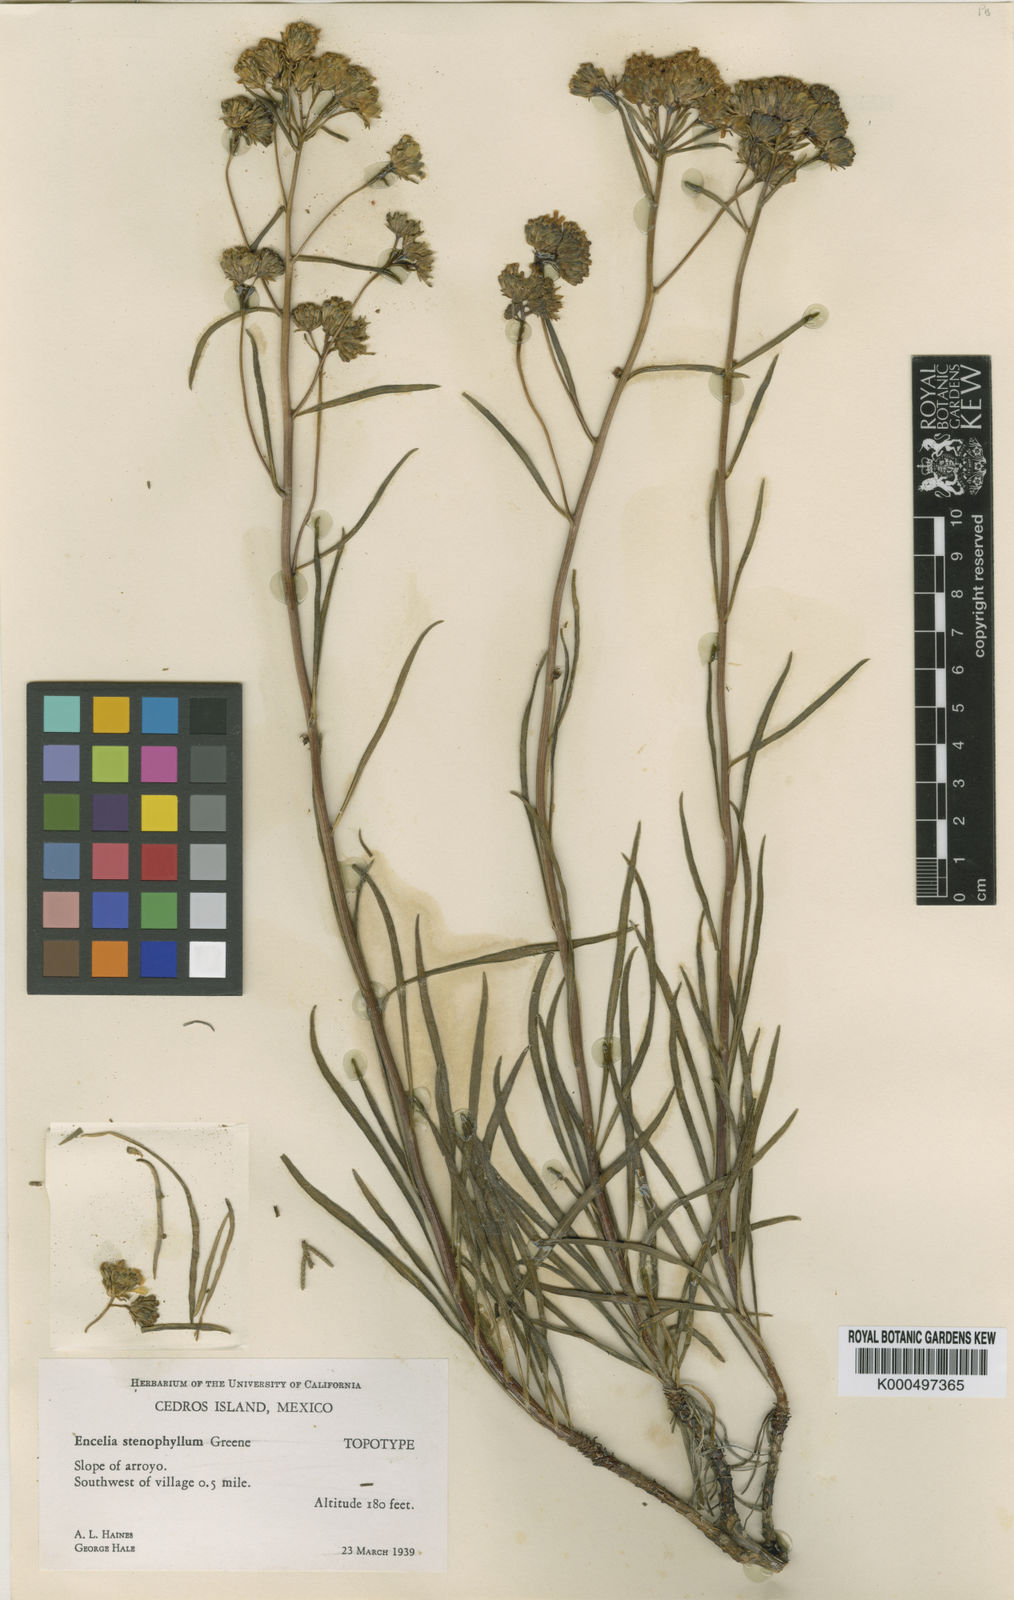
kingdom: Plantae
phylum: Tracheophyta
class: Magnoliopsida
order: Asterales
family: Asteraceae
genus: Encelia
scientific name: Encelia stenophylla
